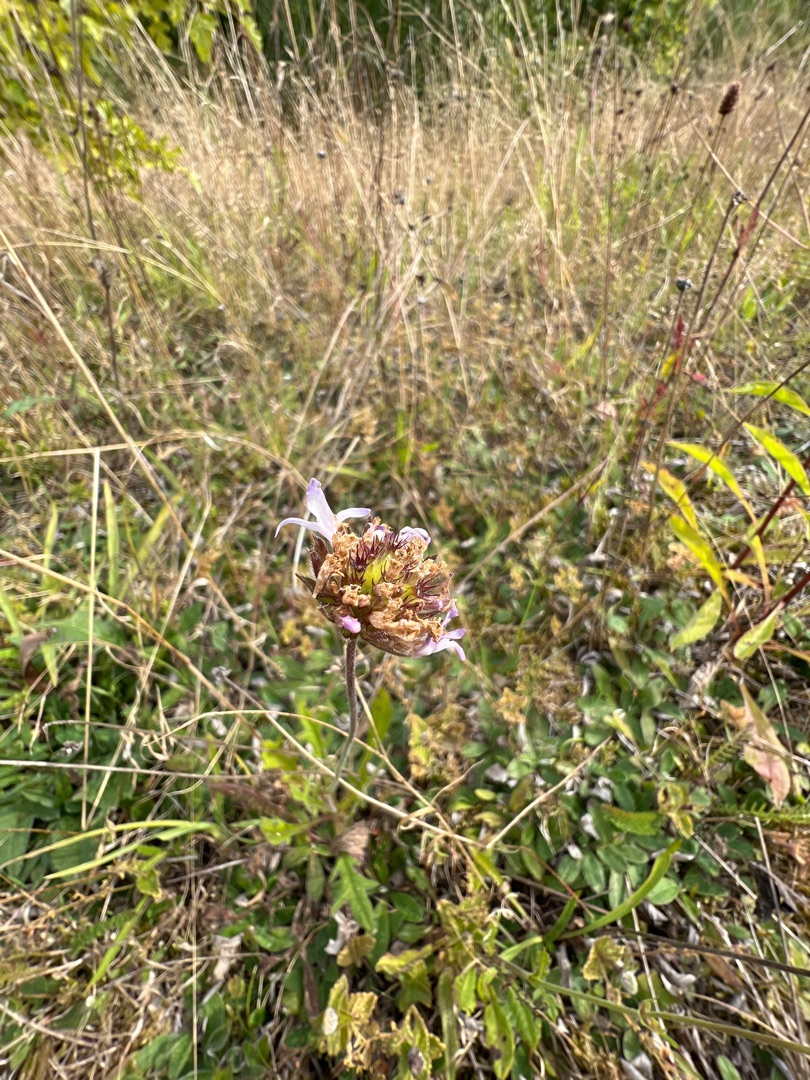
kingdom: Plantae
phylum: Tracheophyta
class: Magnoliopsida
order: Dipsacales
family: Caprifoliaceae
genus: Knautia
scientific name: Knautia arvensis
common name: Blåhat
